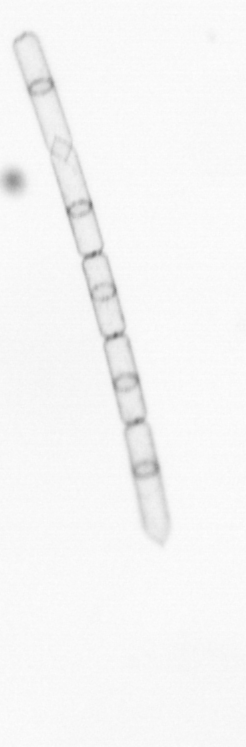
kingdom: Chromista
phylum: Ochrophyta
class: Bacillariophyceae
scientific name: Bacillariophyceae
